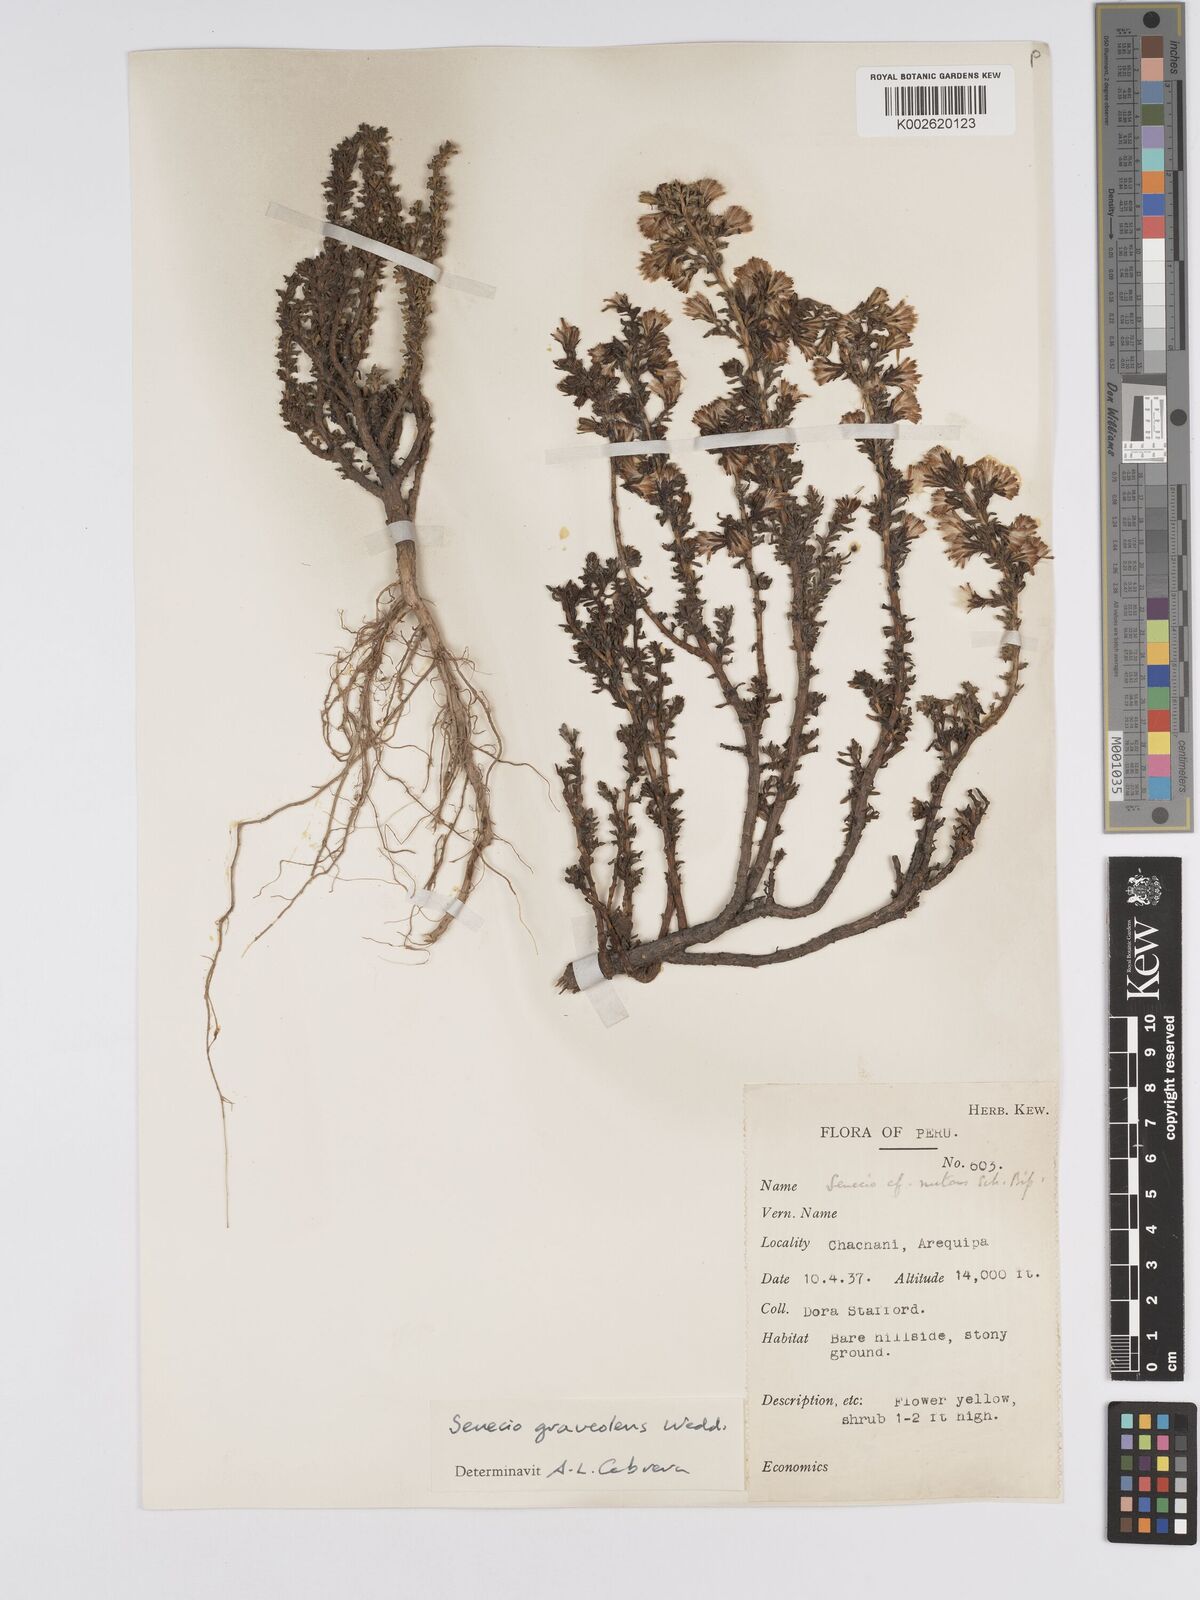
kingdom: Plantae
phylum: Tracheophyta
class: Magnoliopsida
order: Asterales
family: Asteraceae
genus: Senecio
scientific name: Senecio nutans
